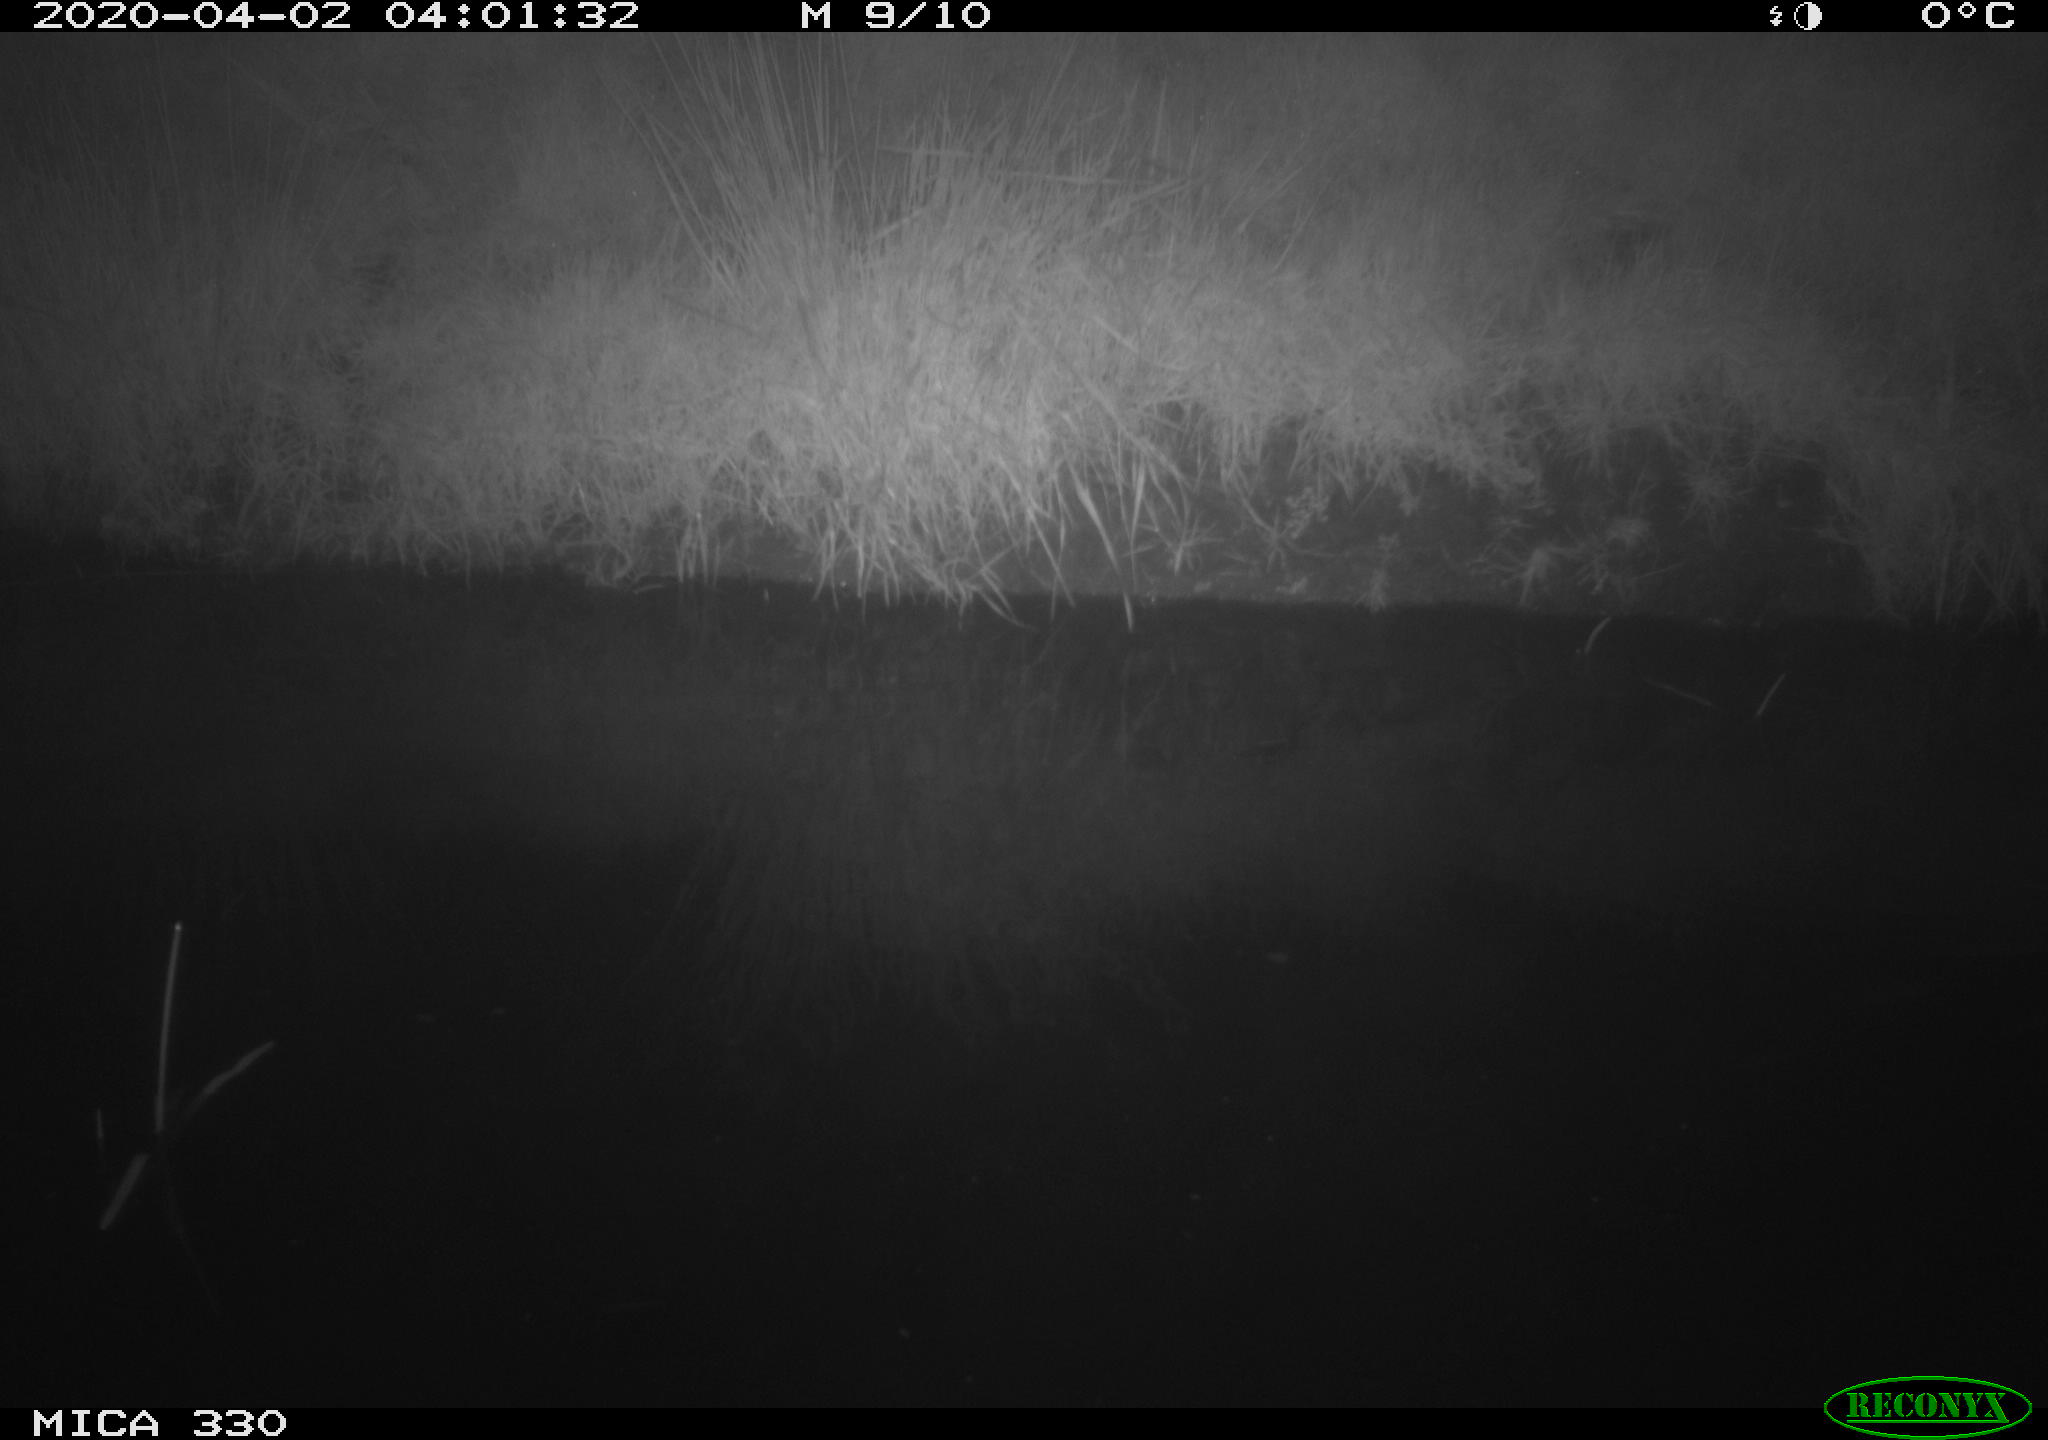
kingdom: Animalia
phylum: Chordata
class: Aves
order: Anseriformes
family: Anatidae
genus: Anas
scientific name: Anas platyrhynchos
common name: Mallard
